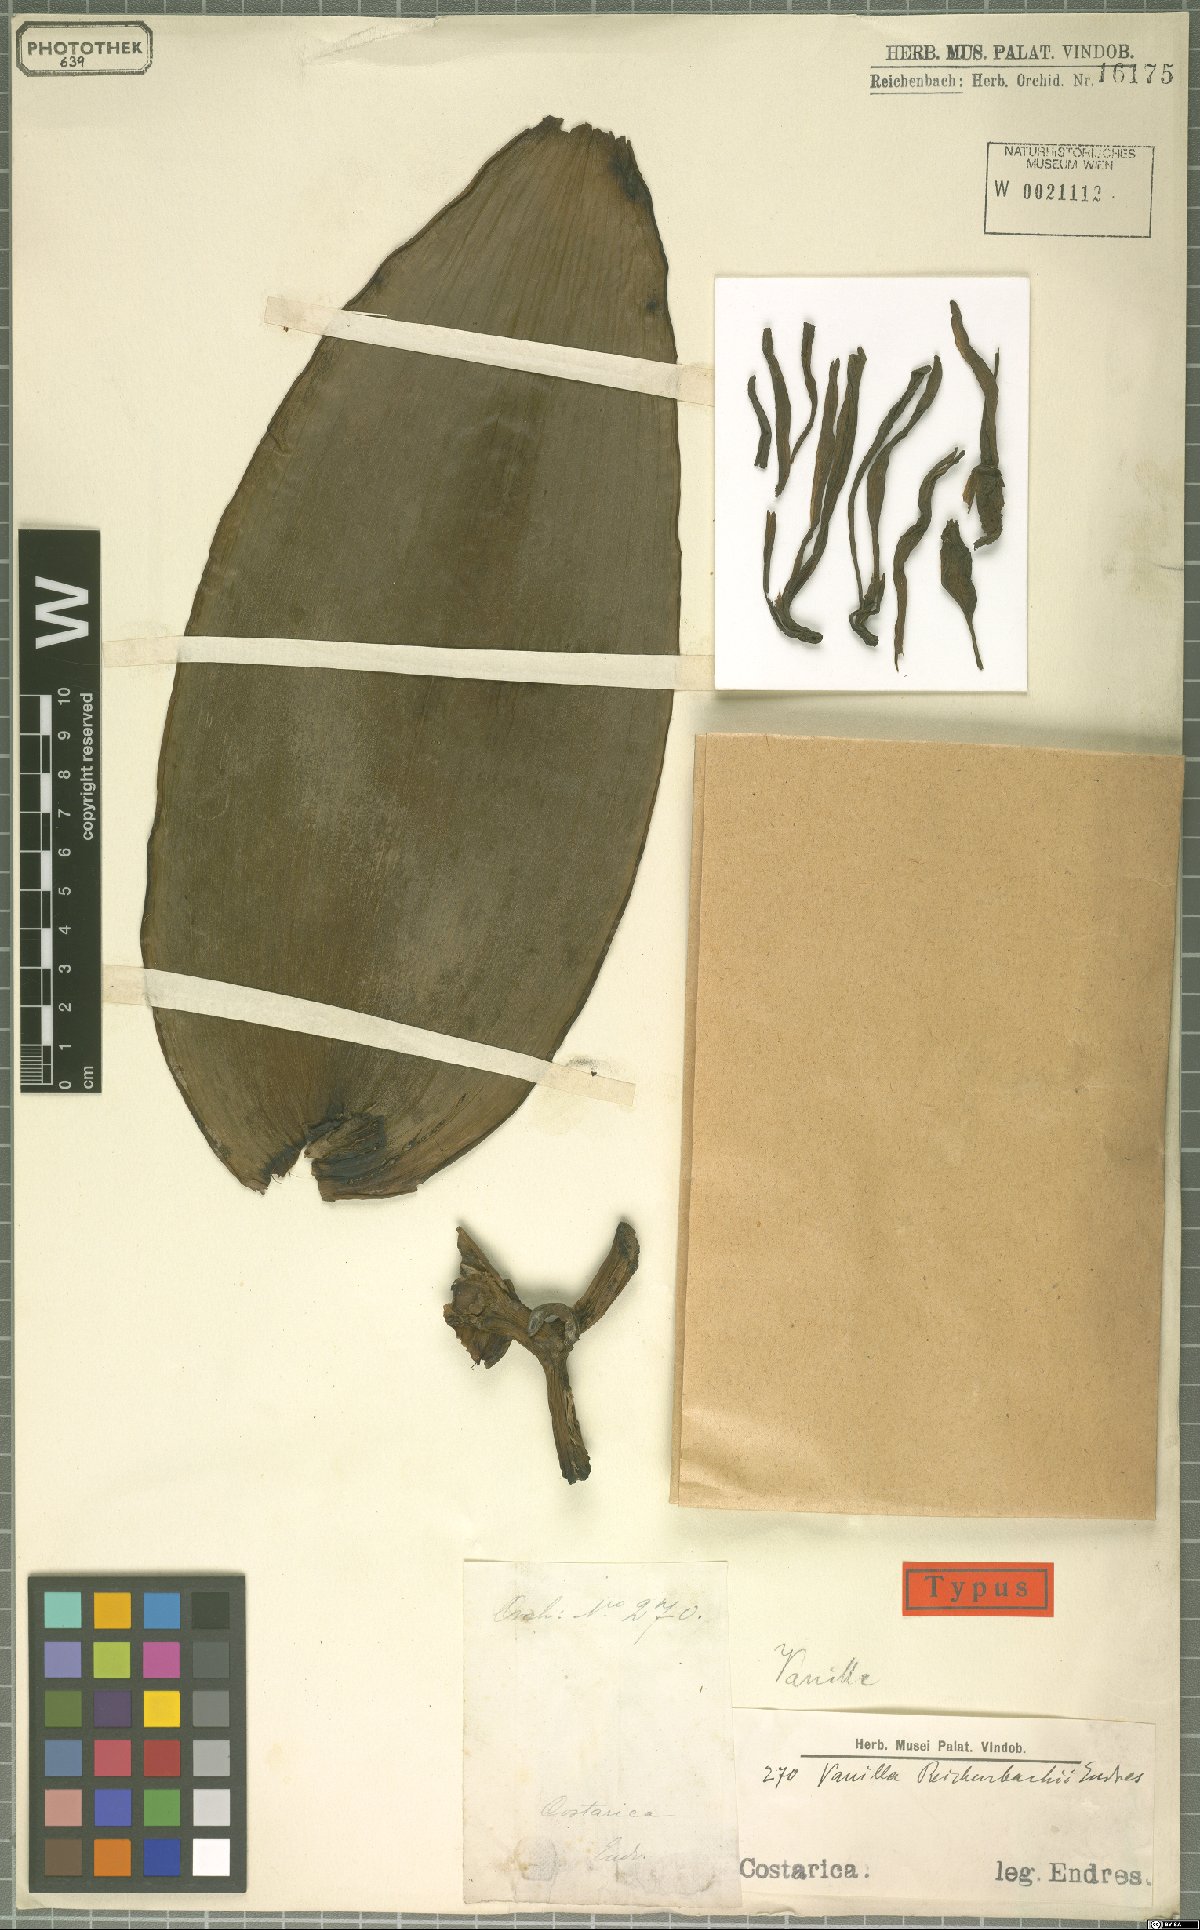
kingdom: Plantae
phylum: Tracheophyta
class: Liliopsida
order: Asparagales
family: Orchidaceae
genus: Vanilla
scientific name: Vanilla pompona
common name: West indian vanilla
